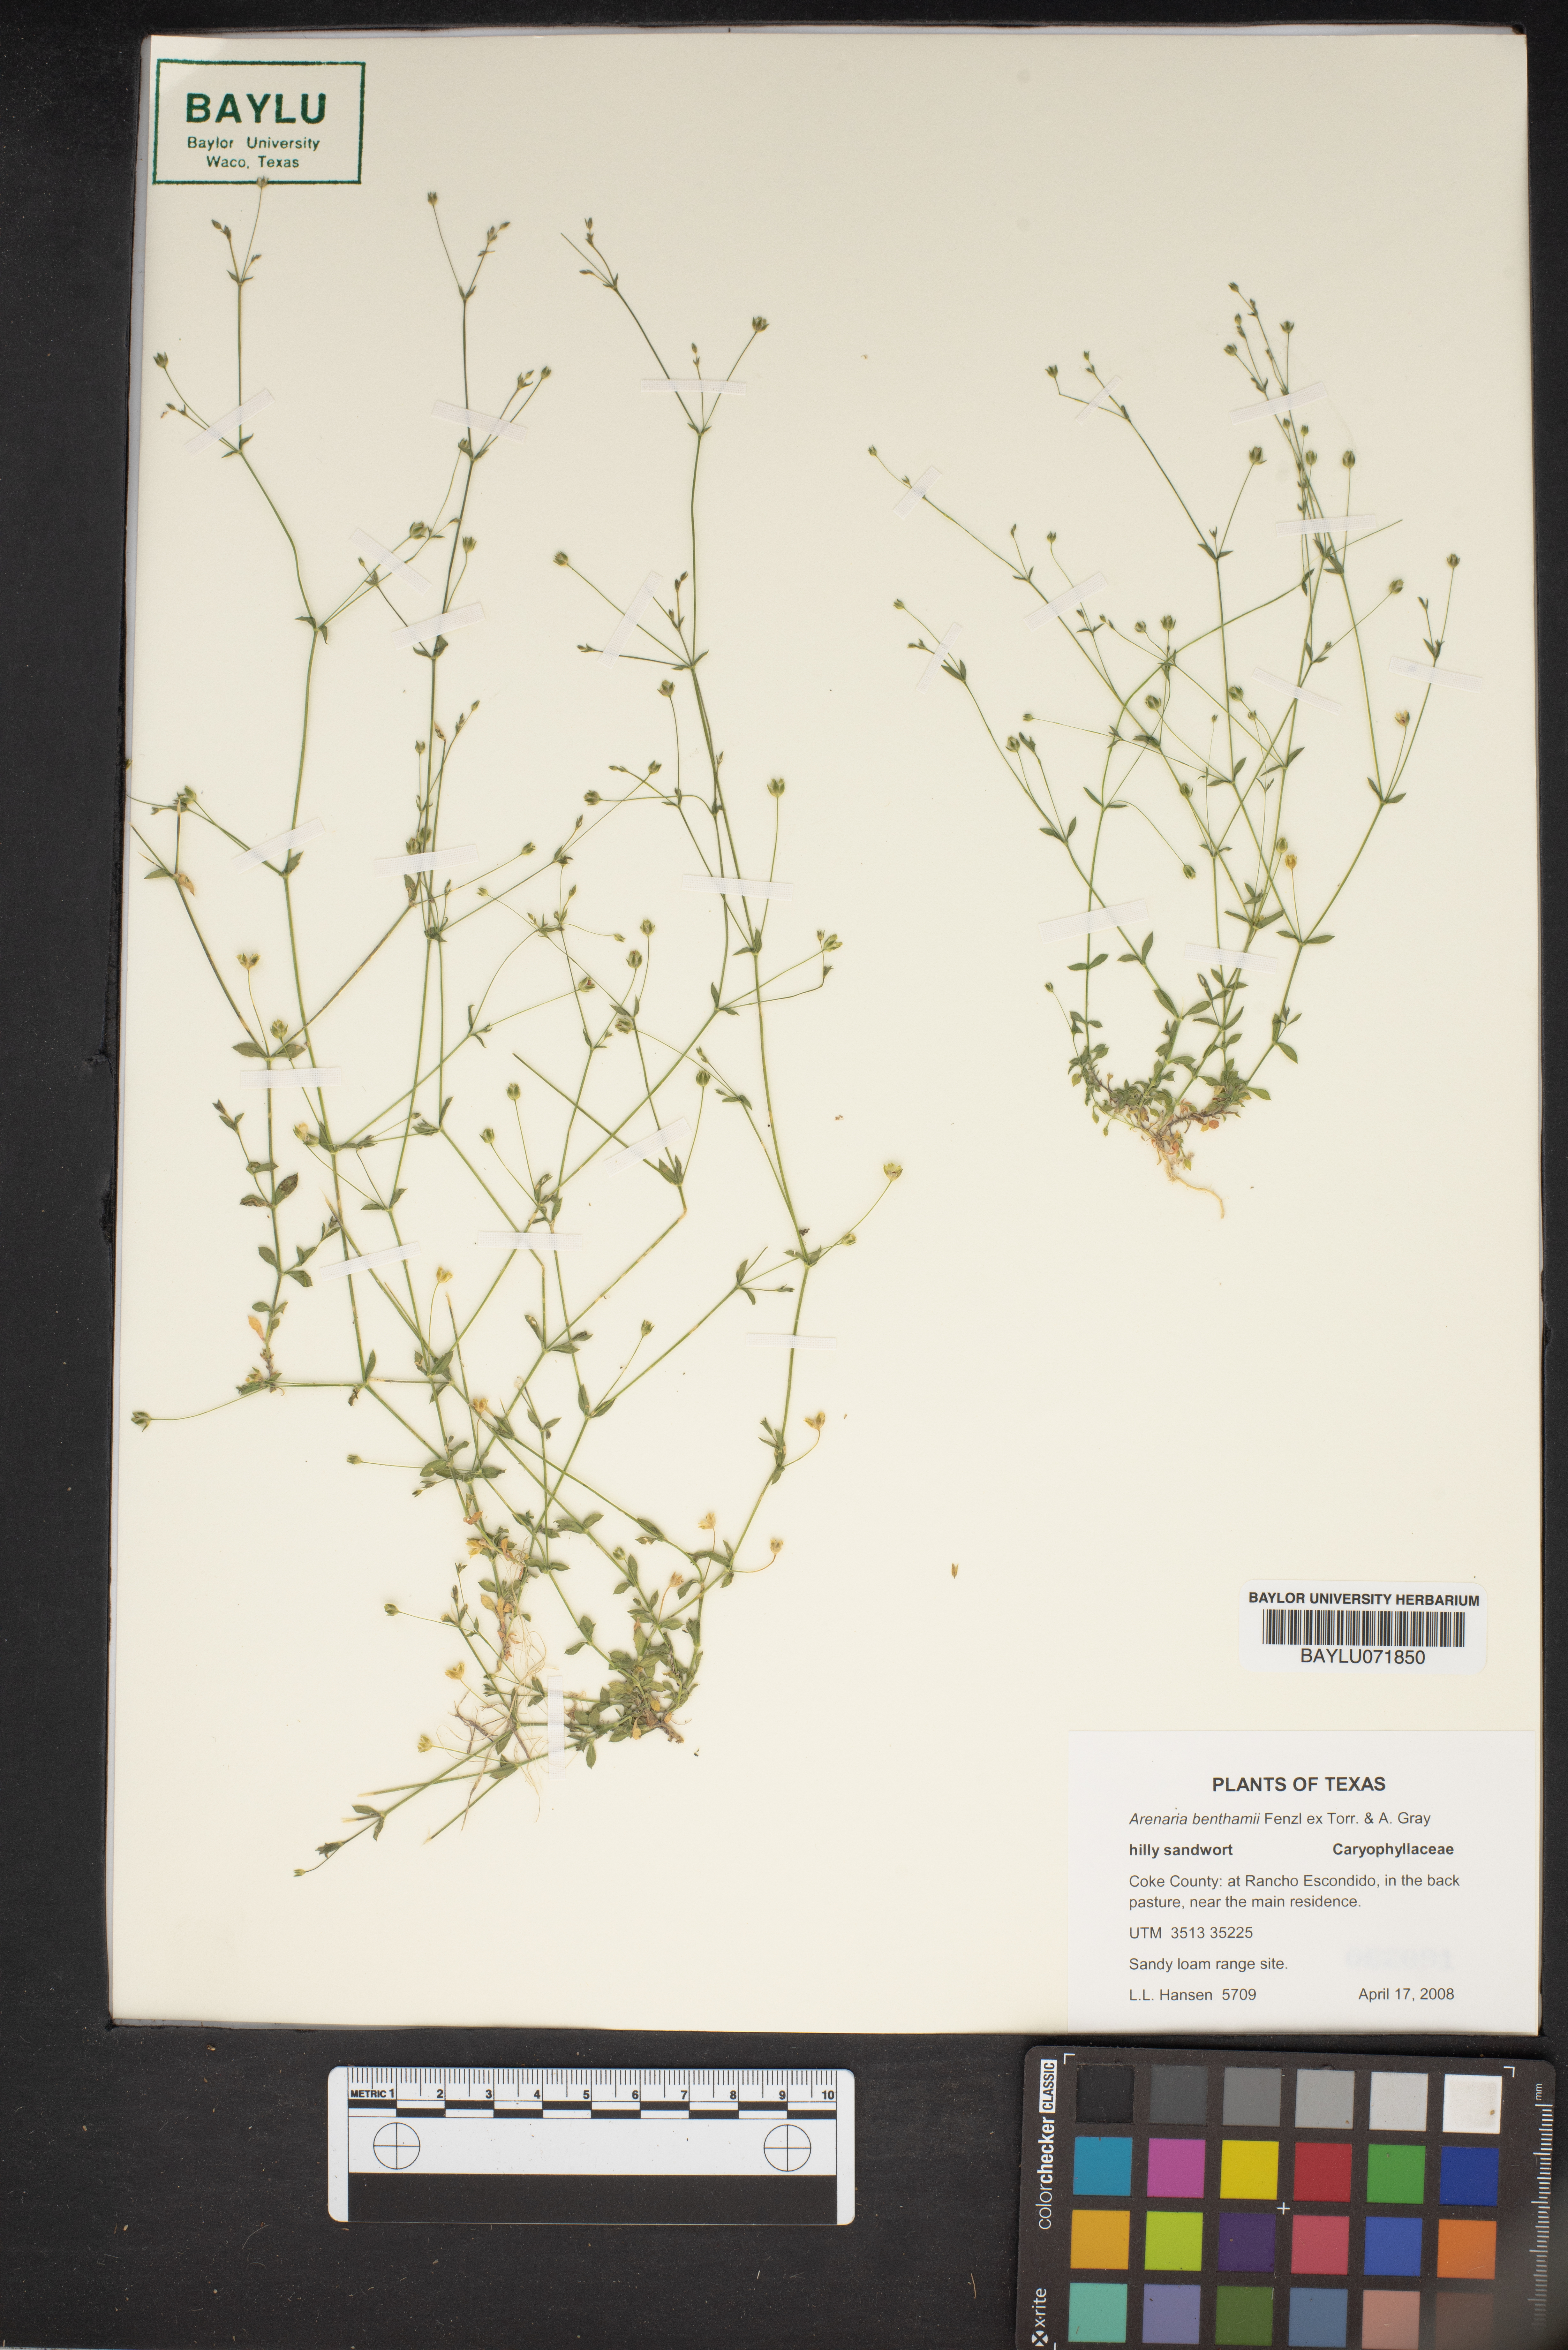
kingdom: Plantae
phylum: Tracheophyta
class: Magnoliopsida
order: Caryophyllales
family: Caryophyllaceae
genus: Arenaria
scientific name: Arenaria benthamii
